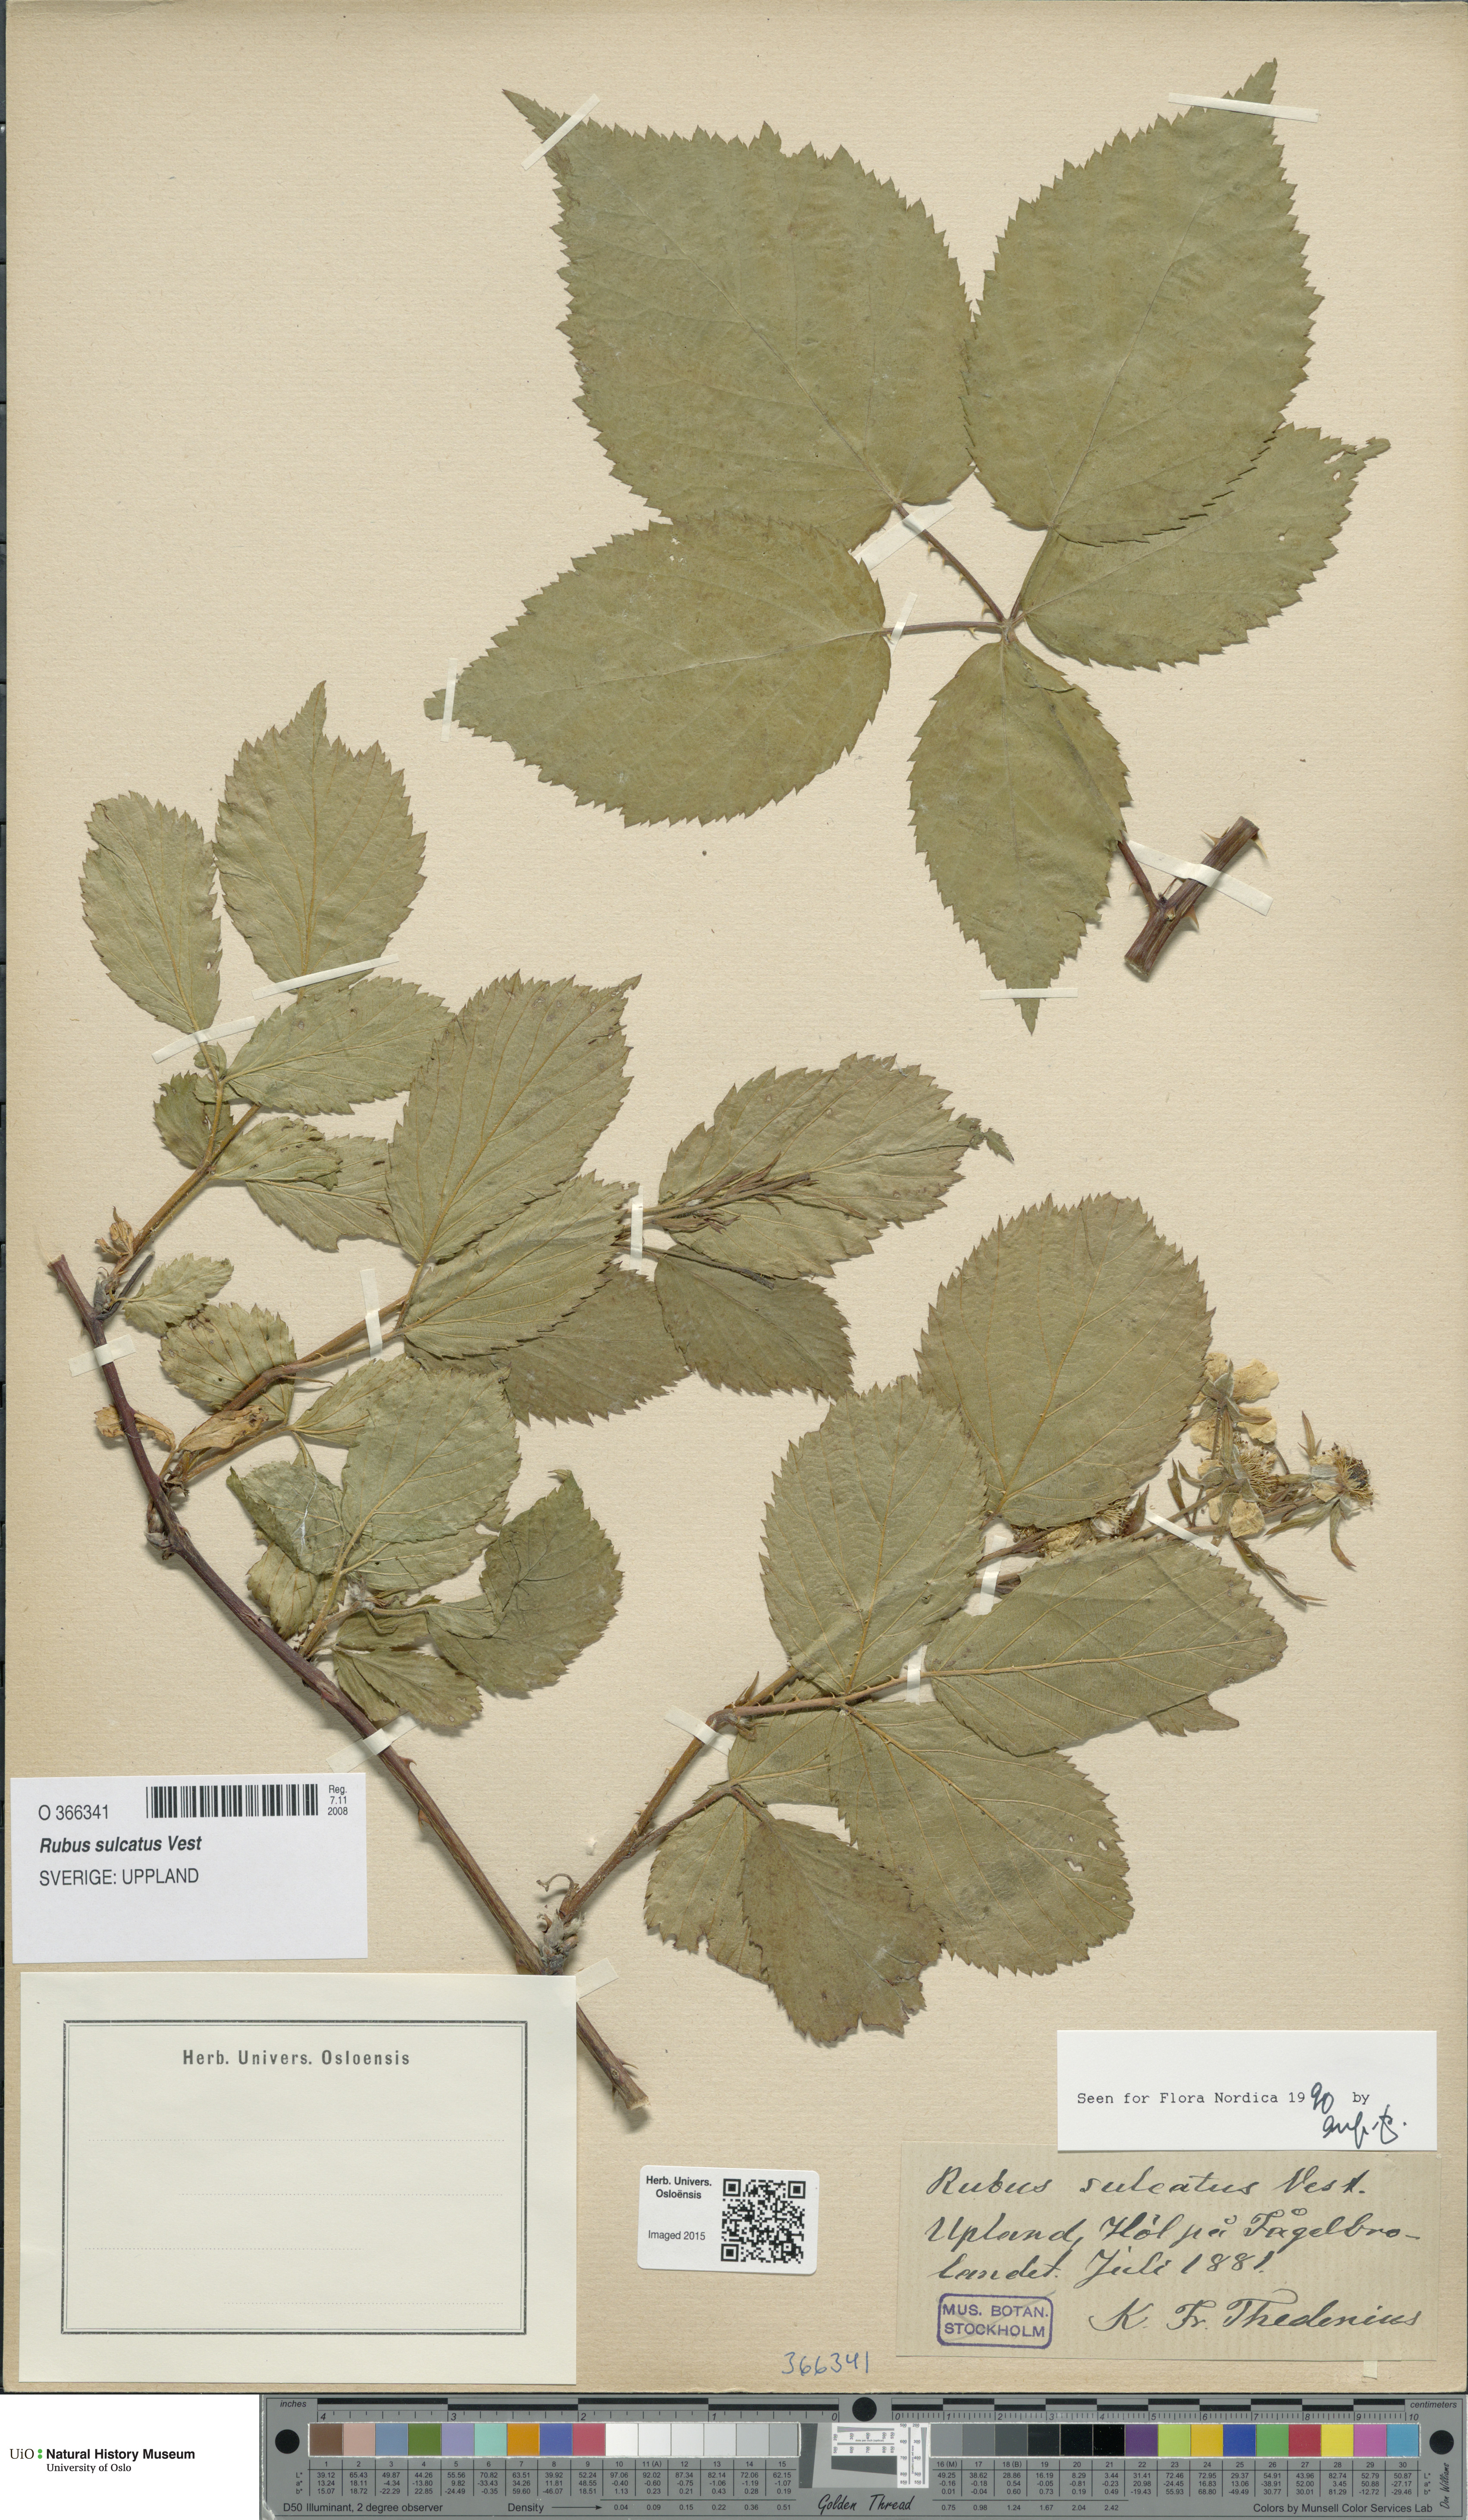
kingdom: Plantae
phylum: Tracheophyta
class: Magnoliopsida
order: Rosales
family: Rosaceae
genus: Rubus
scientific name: Rubus sulcatus
